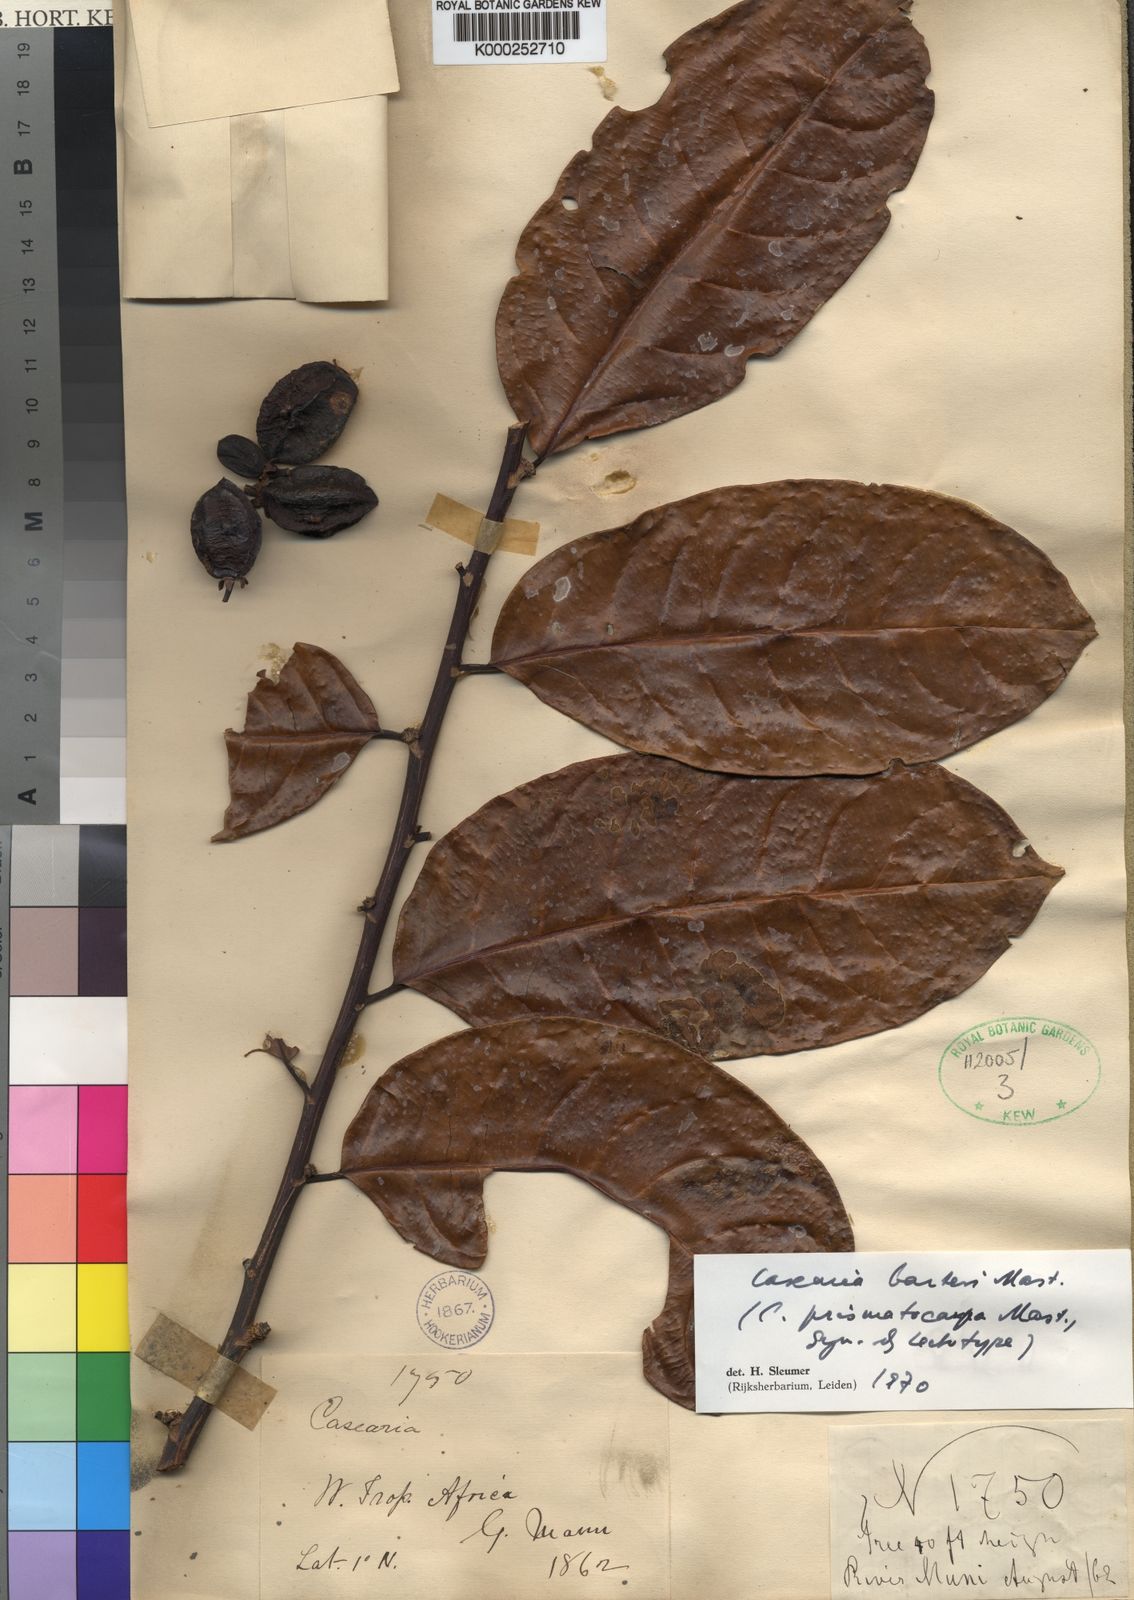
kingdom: Plantae
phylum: Tracheophyta
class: Magnoliopsida
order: Malpighiales
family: Salicaceae
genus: Casearia
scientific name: Casearia barteri
